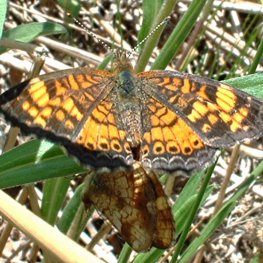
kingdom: Animalia
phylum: Arthropoda
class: Insecta
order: Lepidoptera
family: Nymphalidae
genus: Phyciodes
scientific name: Phyciodes tharos
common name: Northern Crescent
